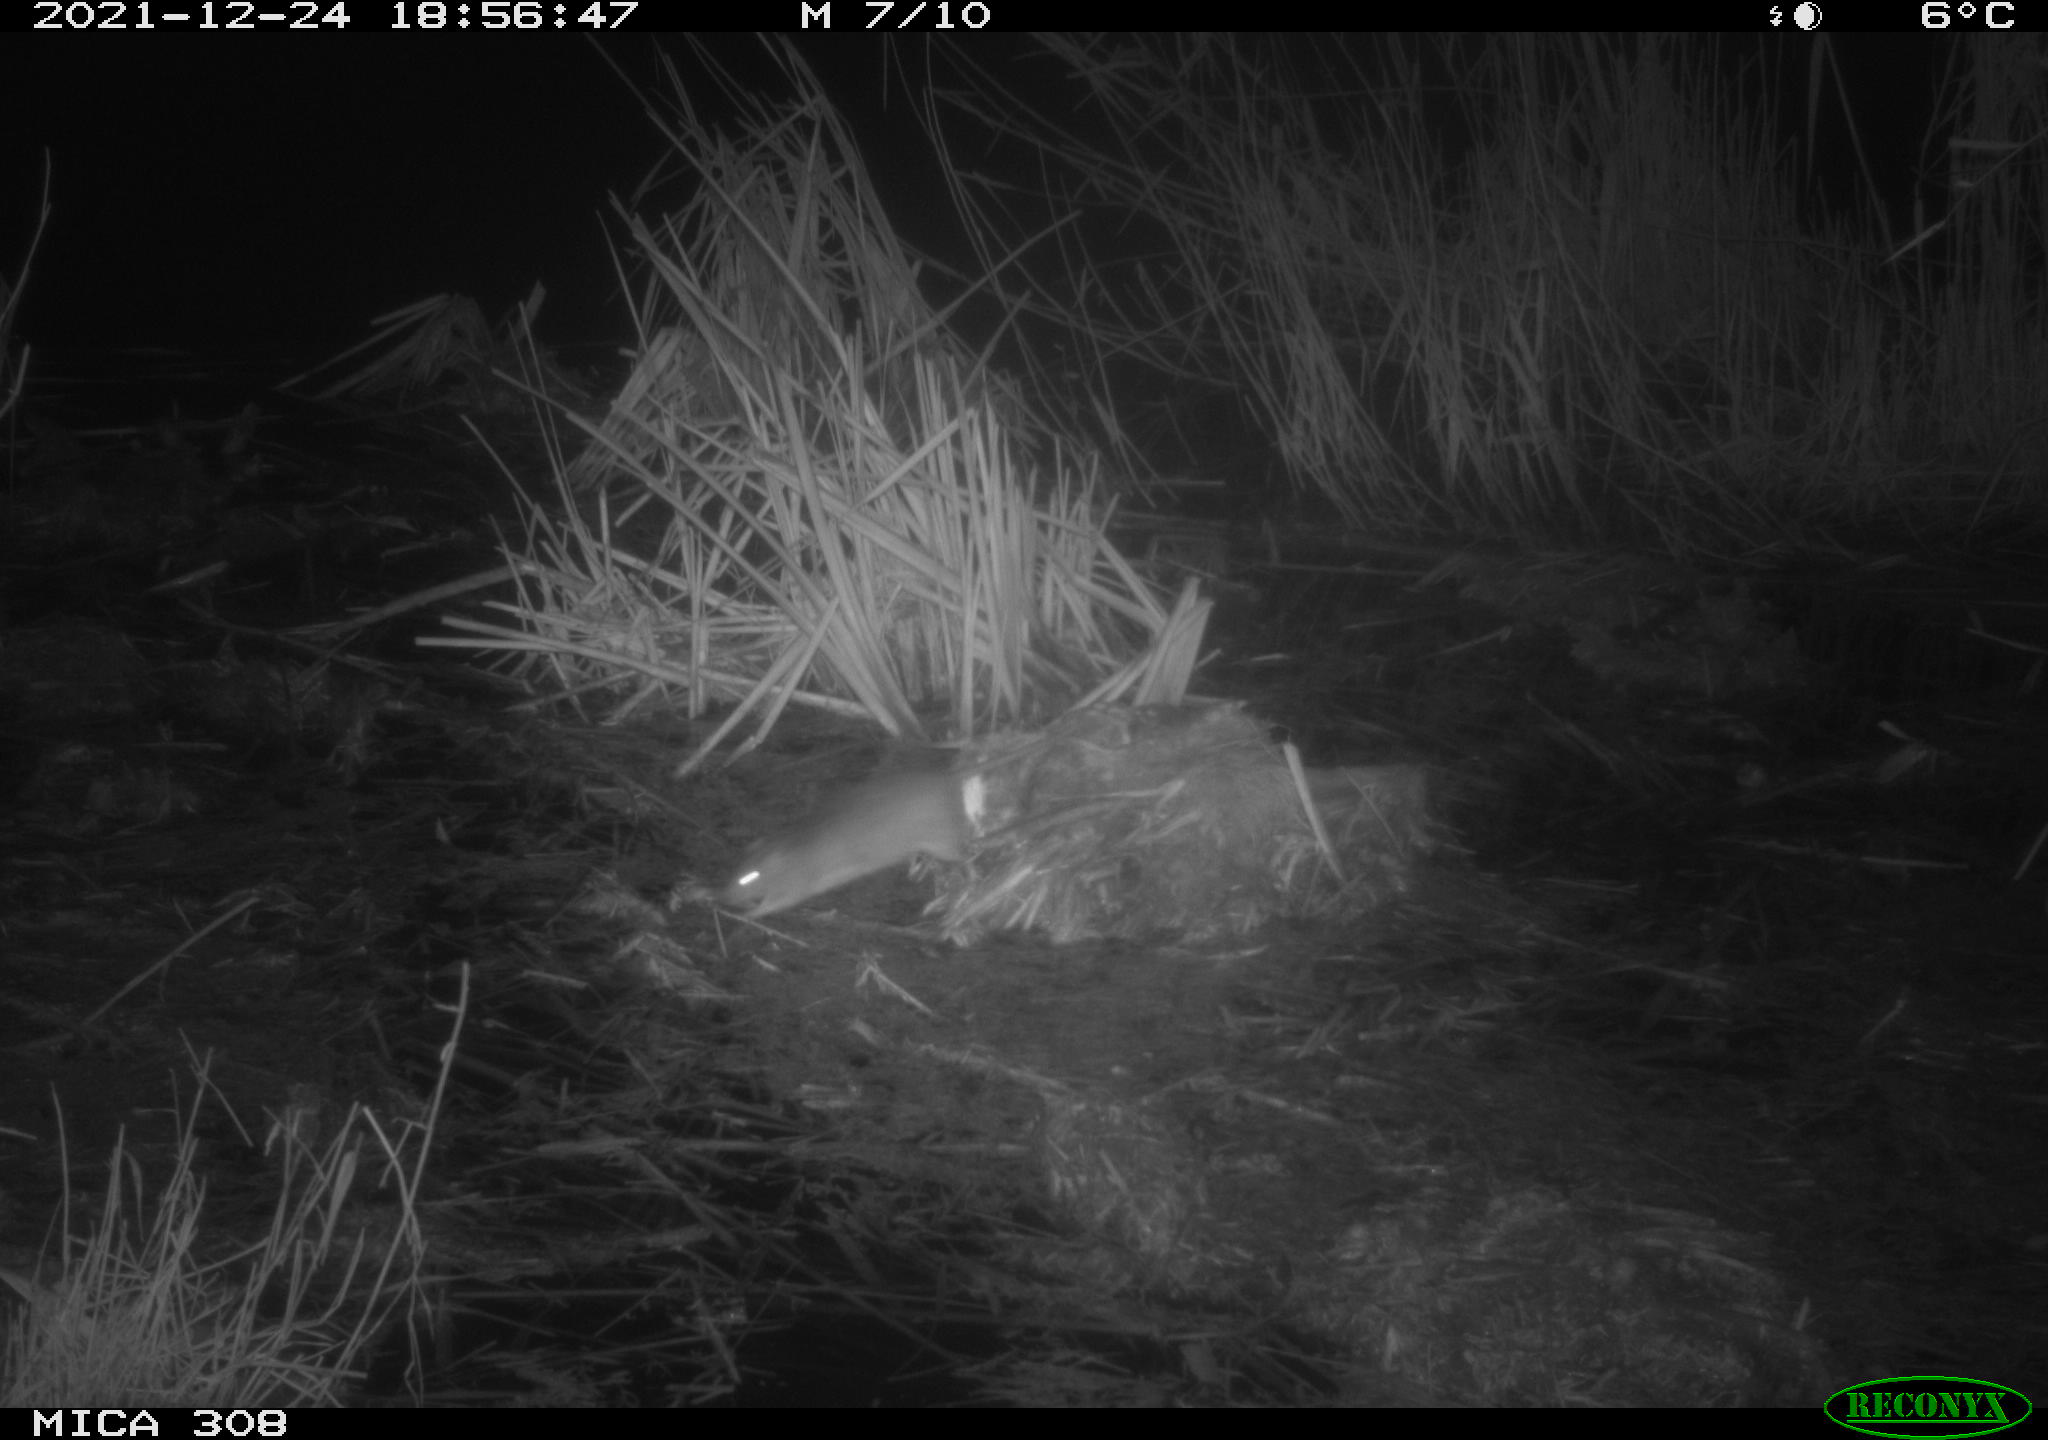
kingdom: Animalia
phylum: Chordata
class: Mammalia
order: Rodentia
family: Muridae
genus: Rattus
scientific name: Rattus norvegicus
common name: Brown rat
